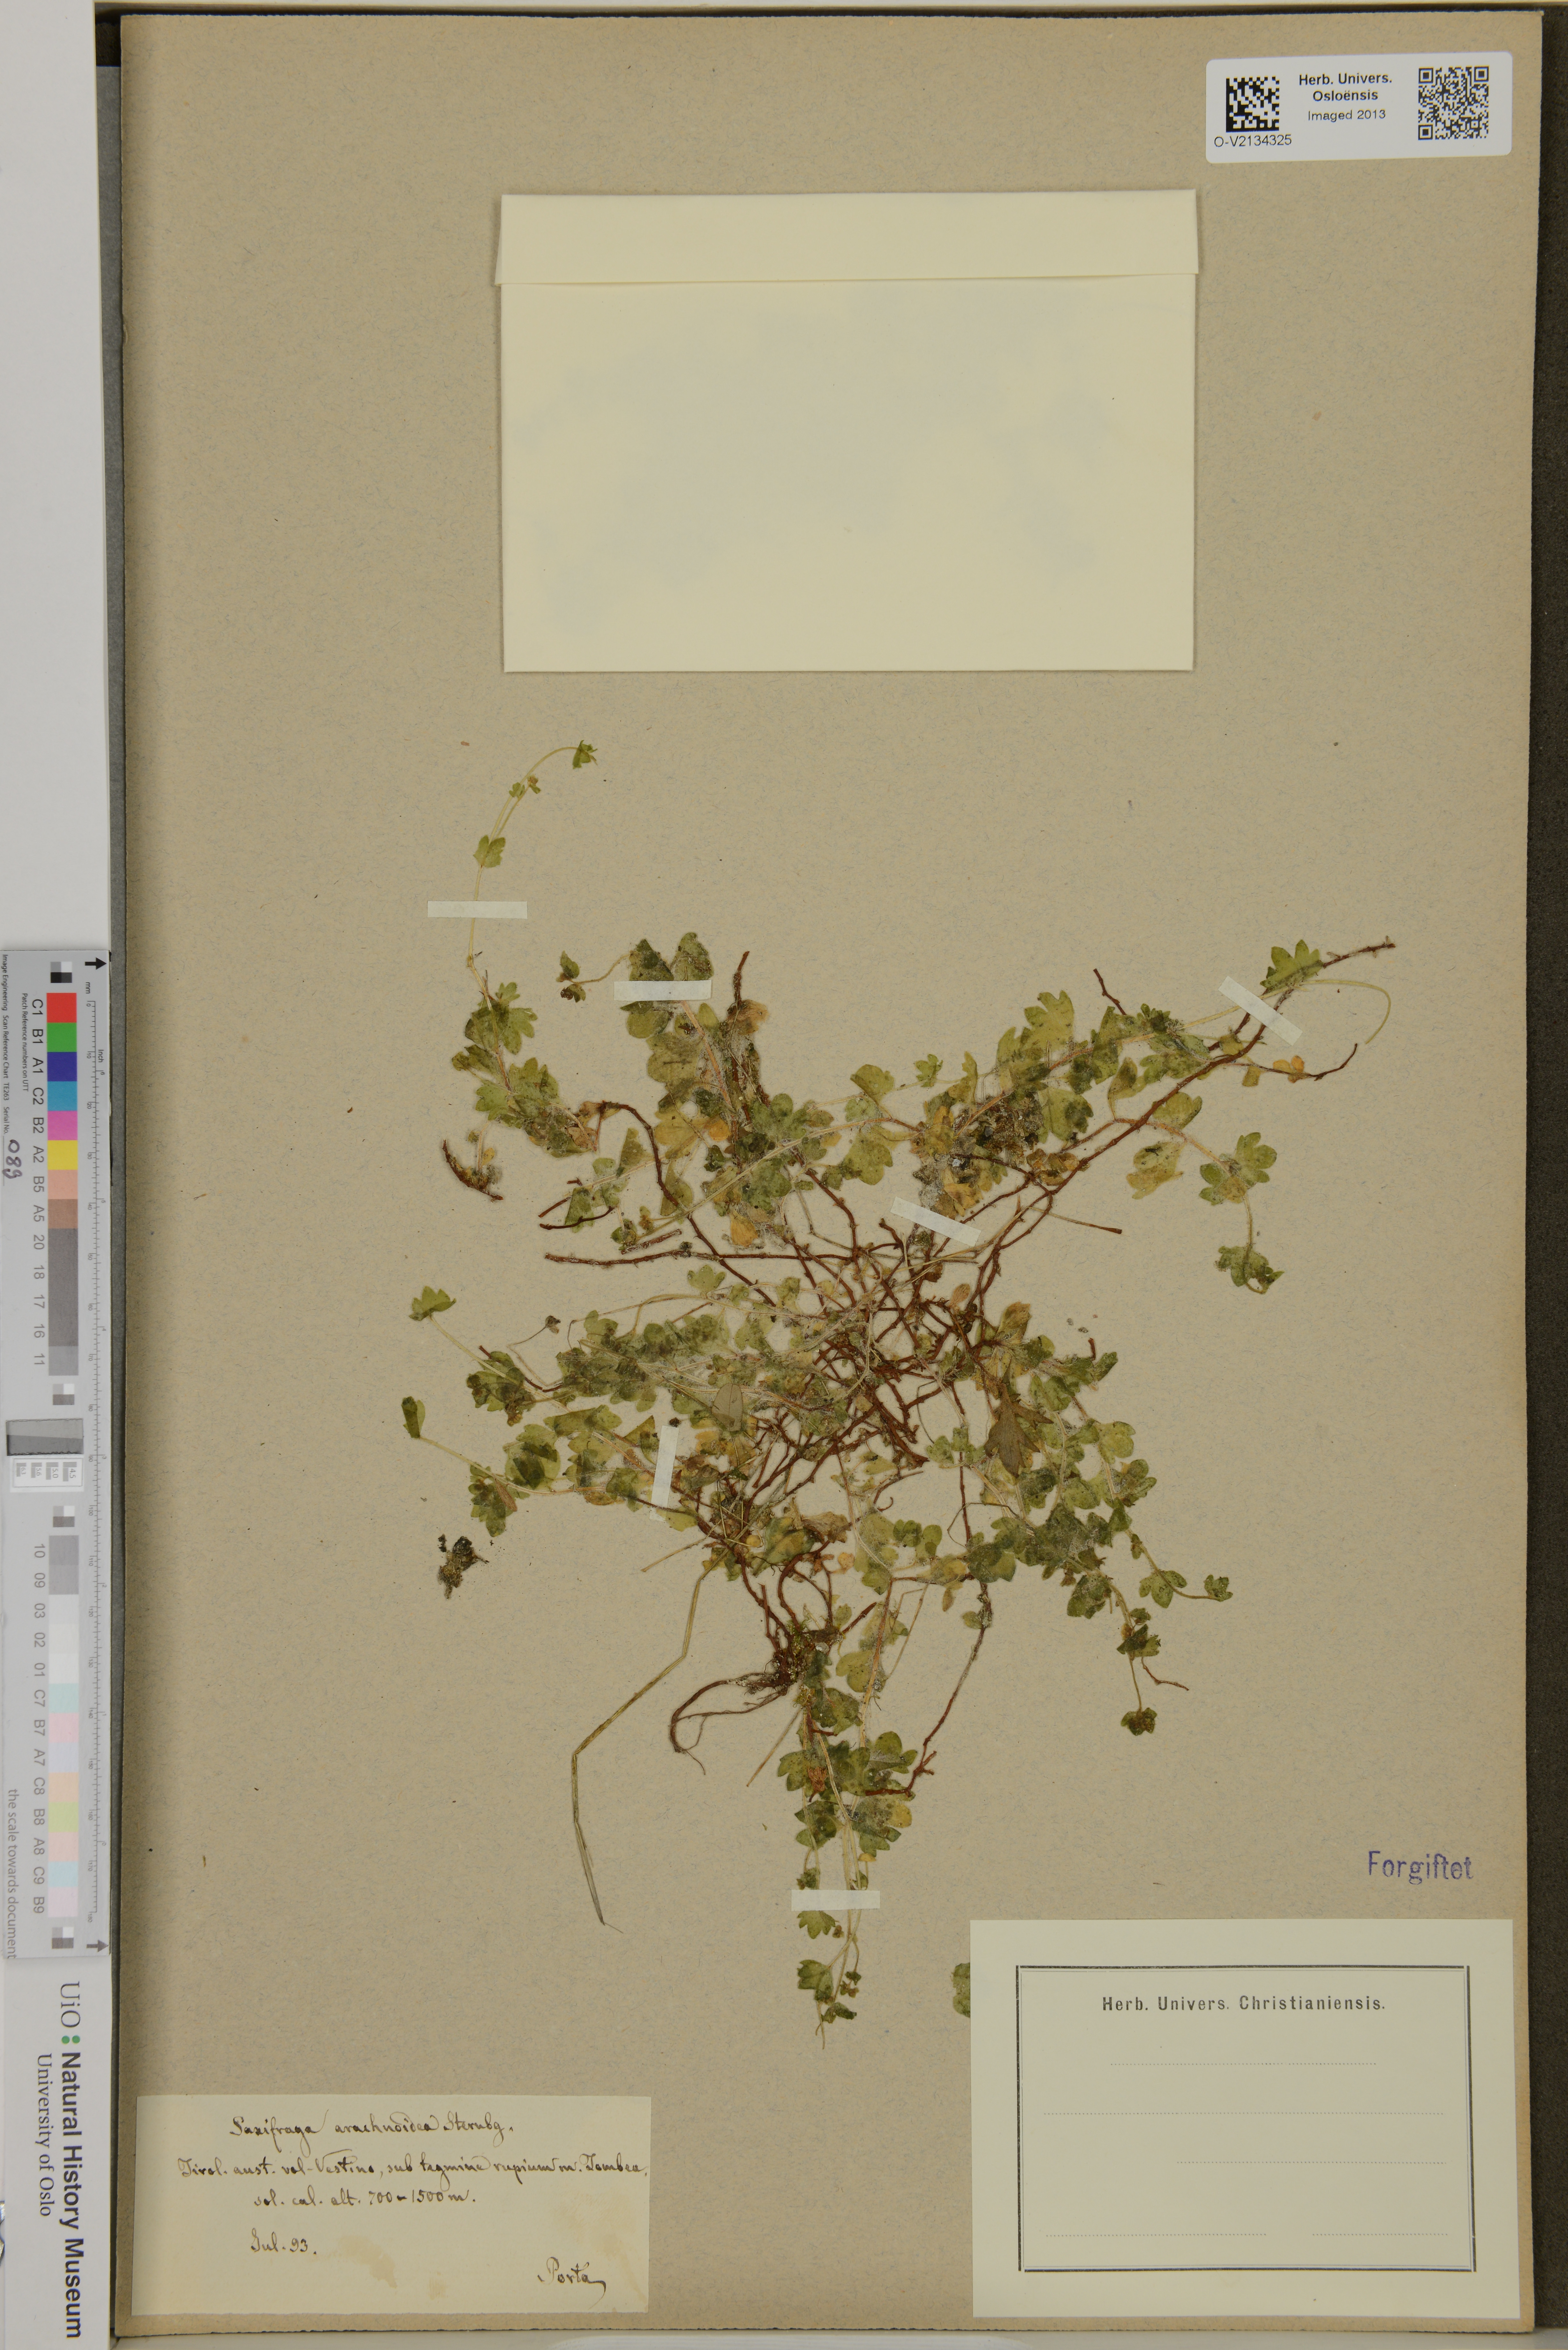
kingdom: Plantae
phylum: Tracheophyta
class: Magnoliopsida
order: Saxifragales
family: Saxifragaceae
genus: Saxifraga
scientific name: Saxifraga arachnoidea
